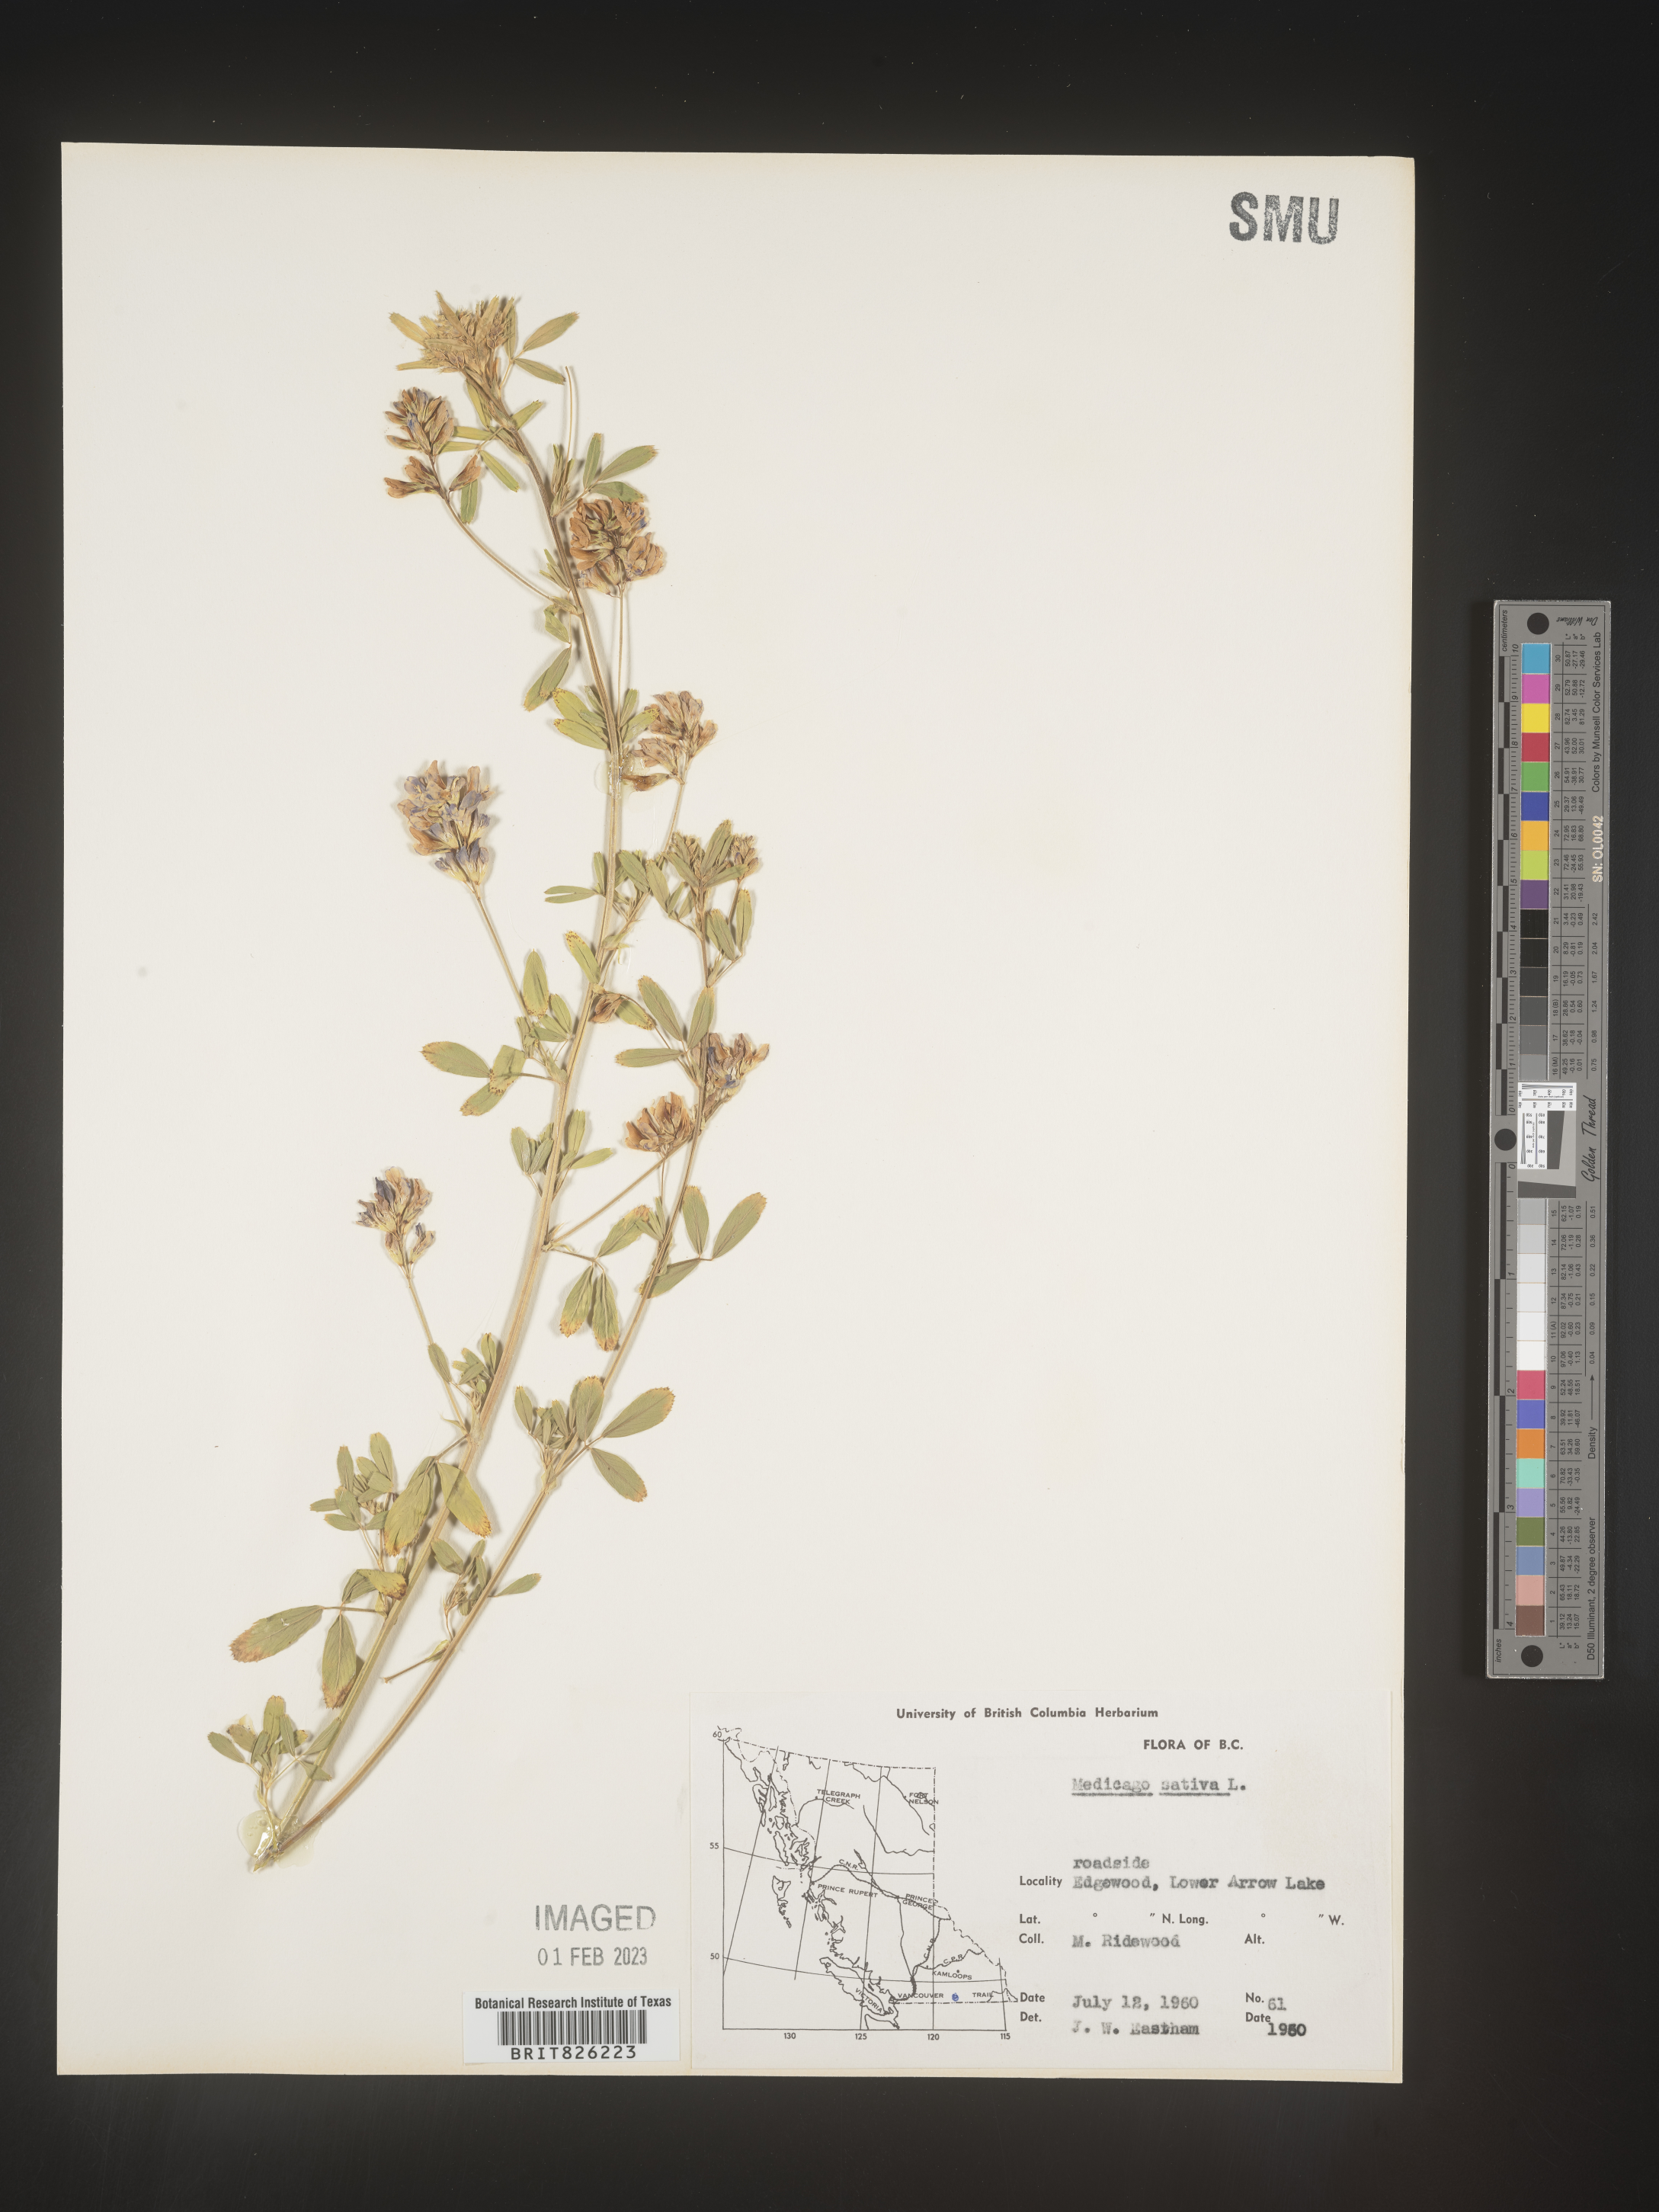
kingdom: Plantae
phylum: Tracheophyta
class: Magnoliopsida
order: Fabales
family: Fabaceae
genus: Medicago
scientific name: Medicago sativa
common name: Alfalfa
